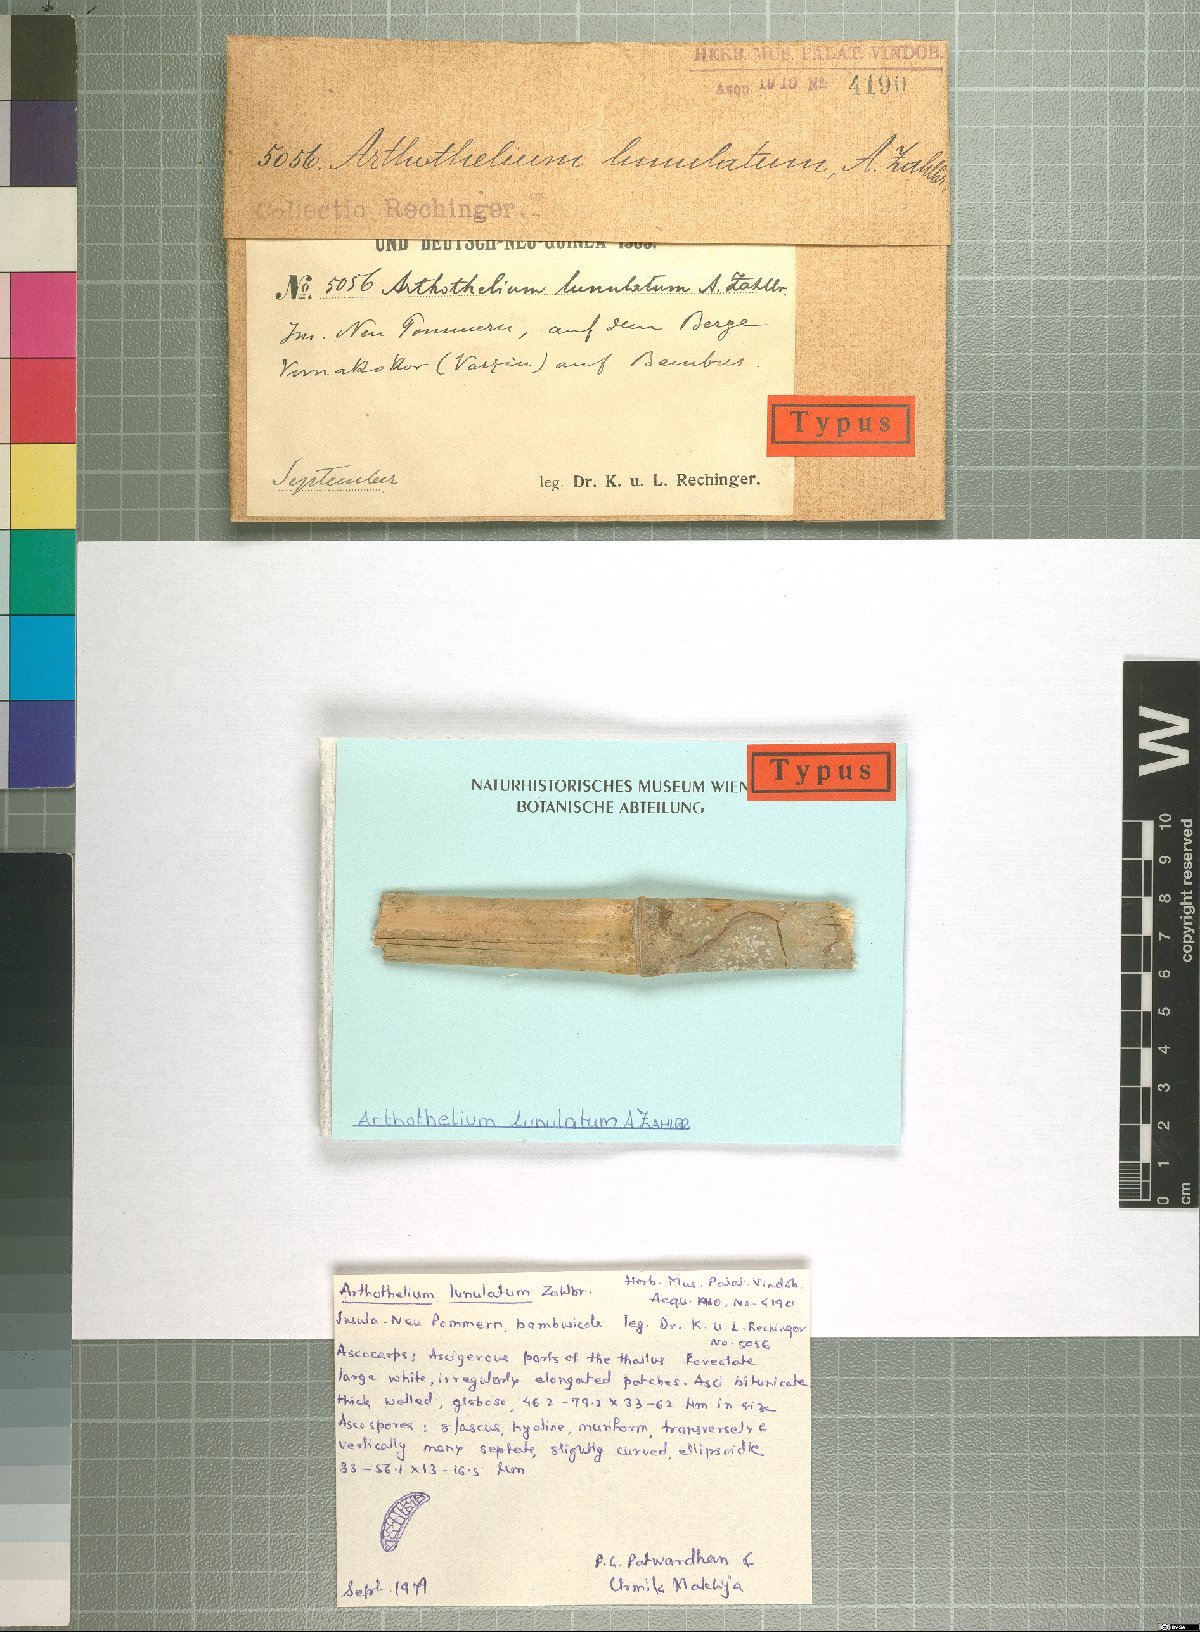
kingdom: Fungi
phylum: Ascomycota
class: Arthoniomycetes
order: Arthoniales
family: Arthoniaceae
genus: Arthothelium
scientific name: Arthothelium
